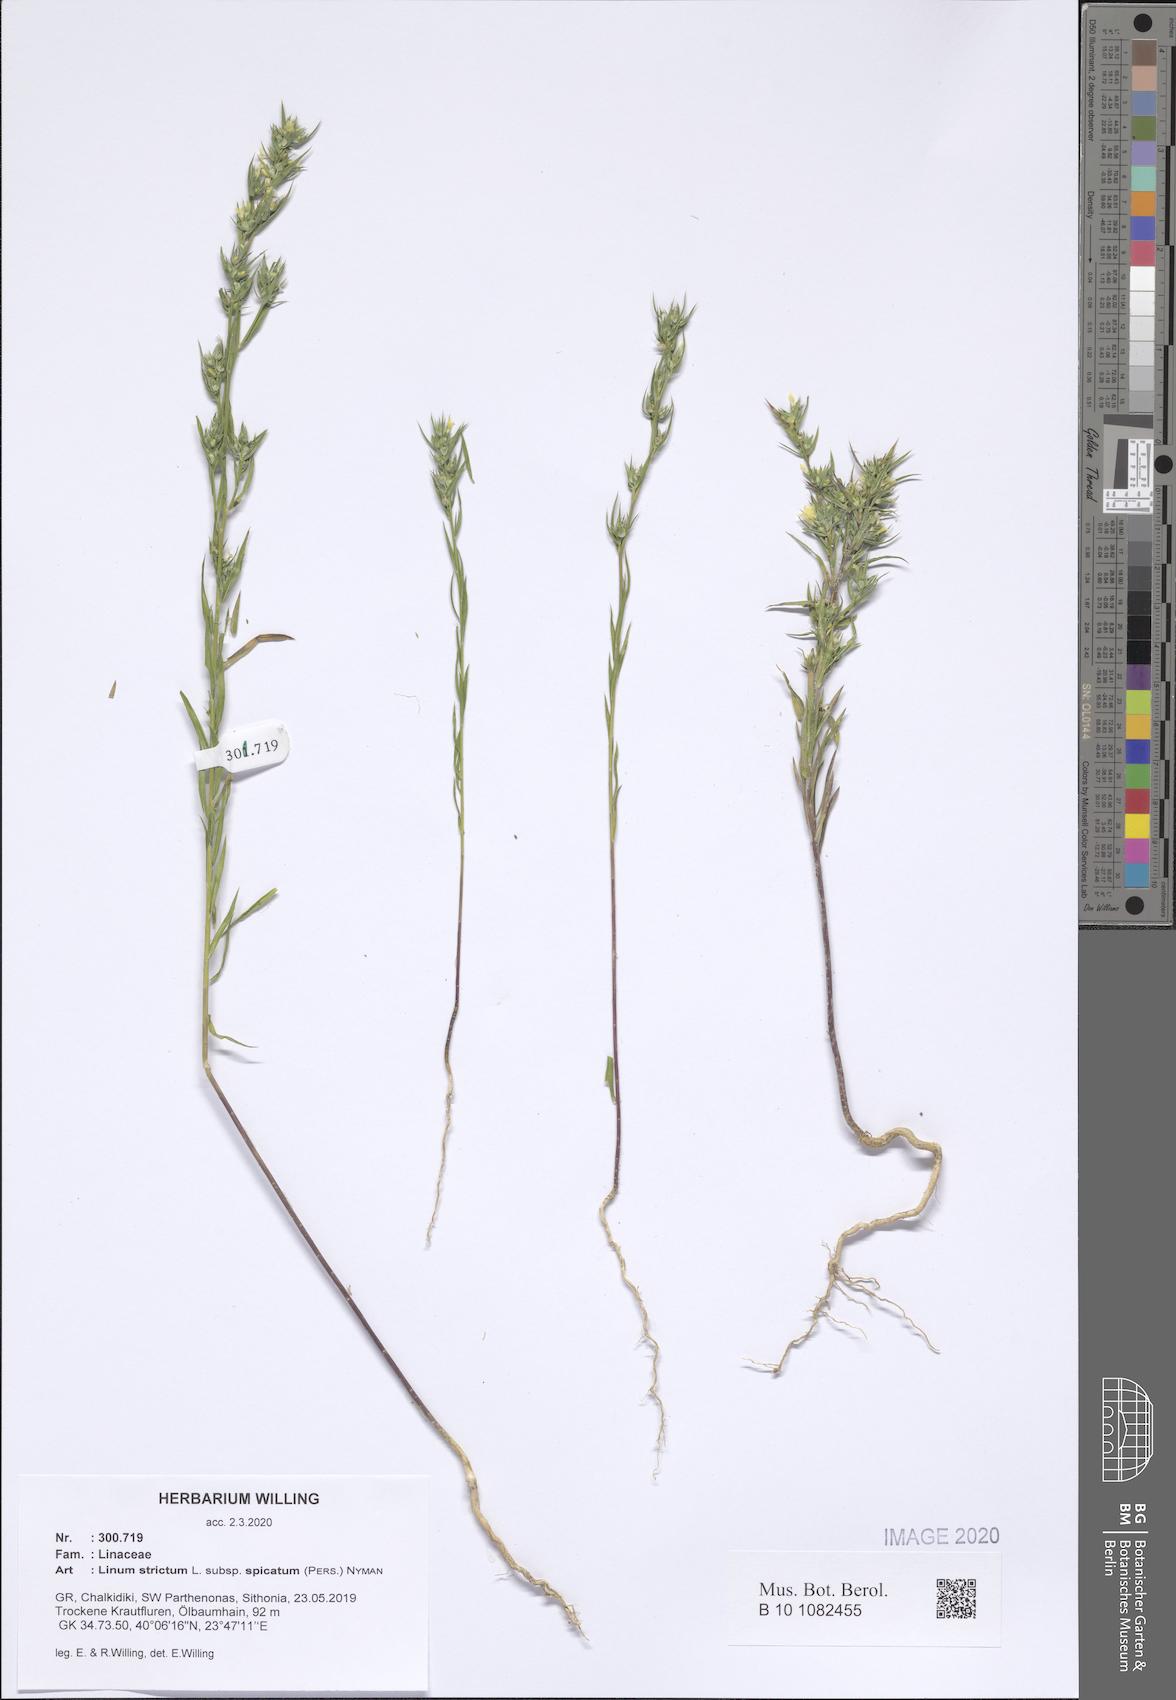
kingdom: Plantae
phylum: Tracheophyta
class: Magnoliopsida
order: Malpighiales
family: Linaceae
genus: Linum
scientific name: Linum strictum
